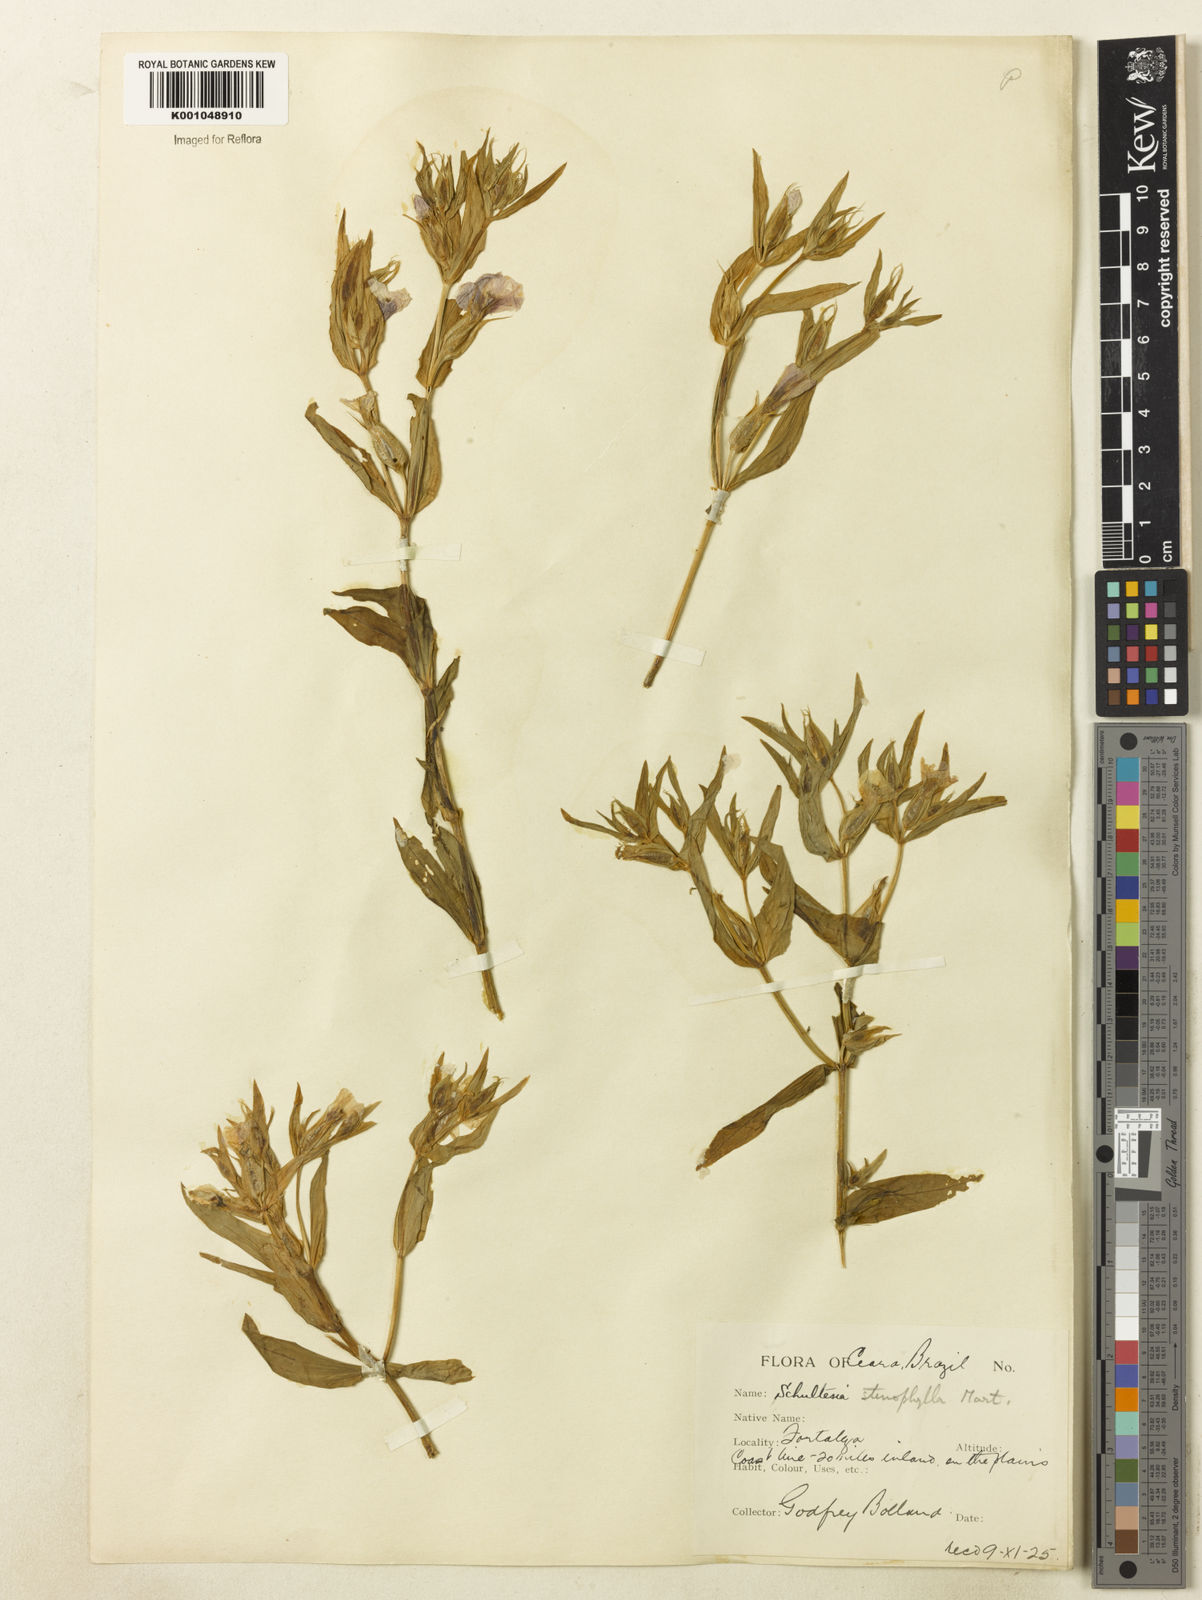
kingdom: Plantae
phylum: Tracheophyta
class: Magnoliopsida
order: Gentianales
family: Gentianaceae
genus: Schultesia
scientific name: Schultesia
